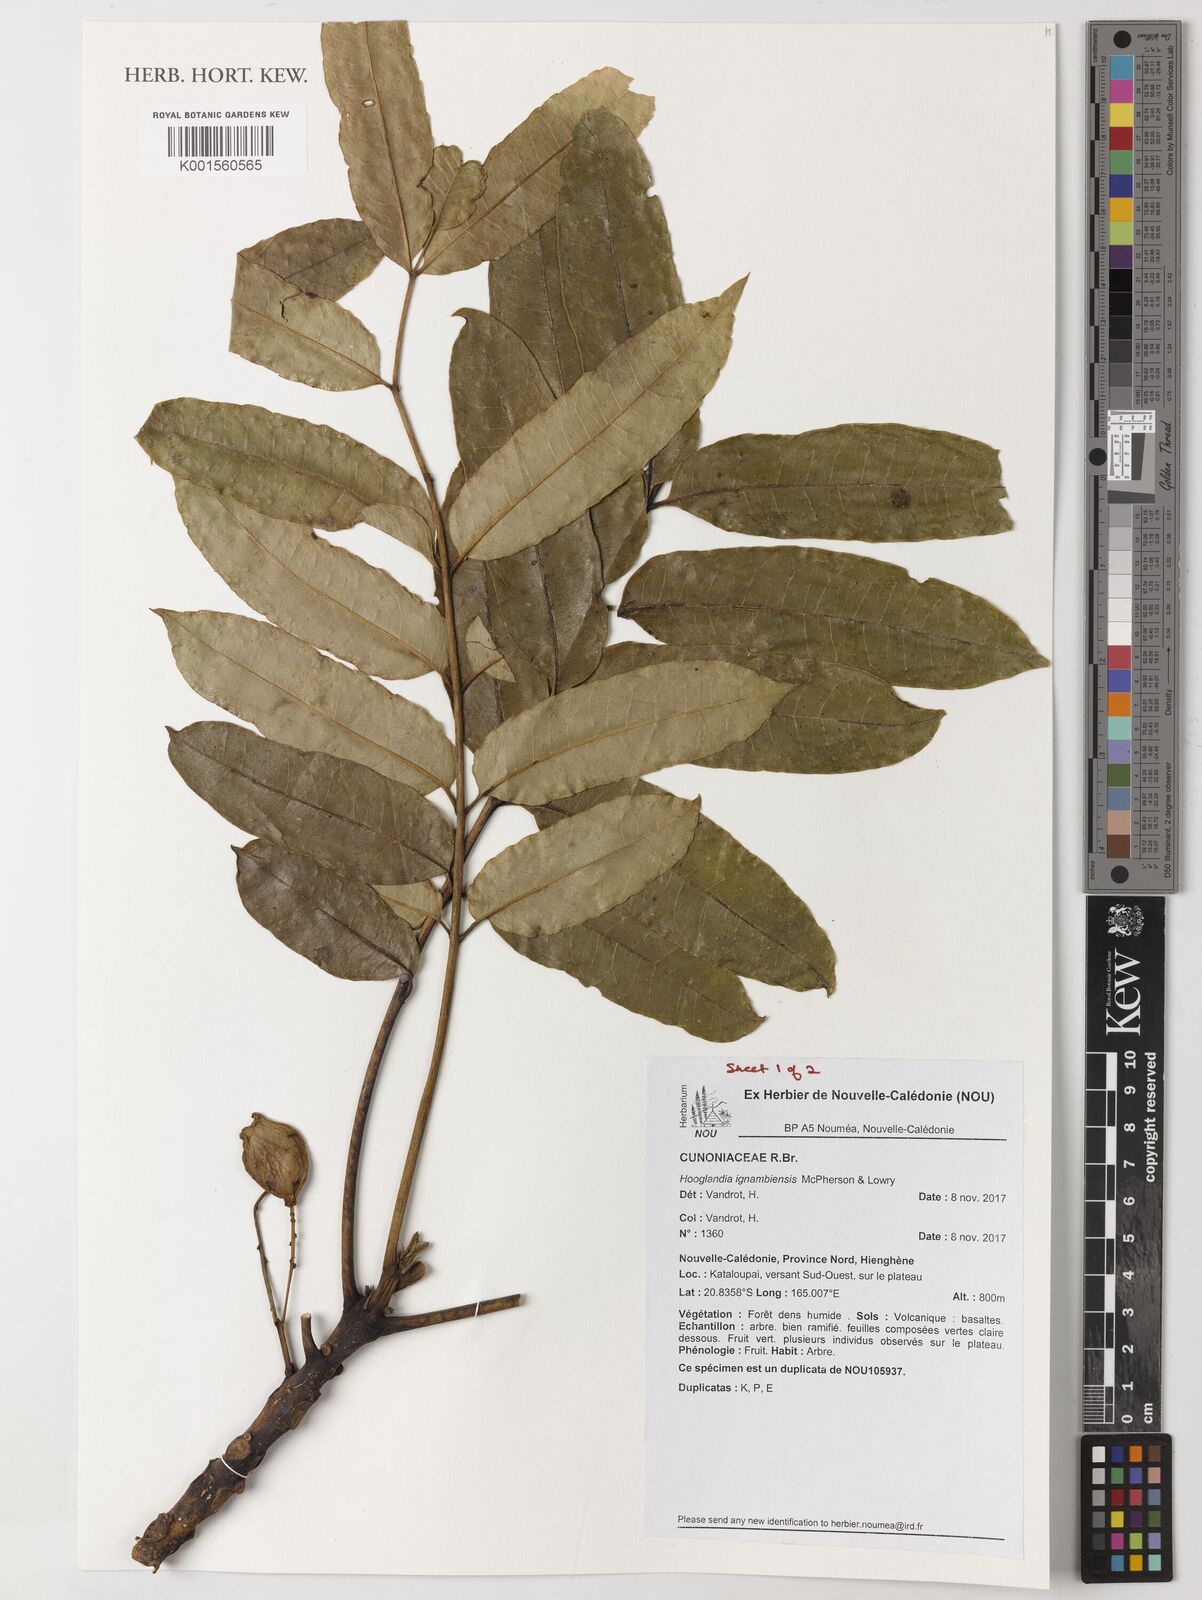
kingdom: Plantae
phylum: Tracheophyta
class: Magnoliopsida
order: Oxalidales
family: Cunoniaceae
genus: Hooglandia
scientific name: Hooglandia ignambiensis
